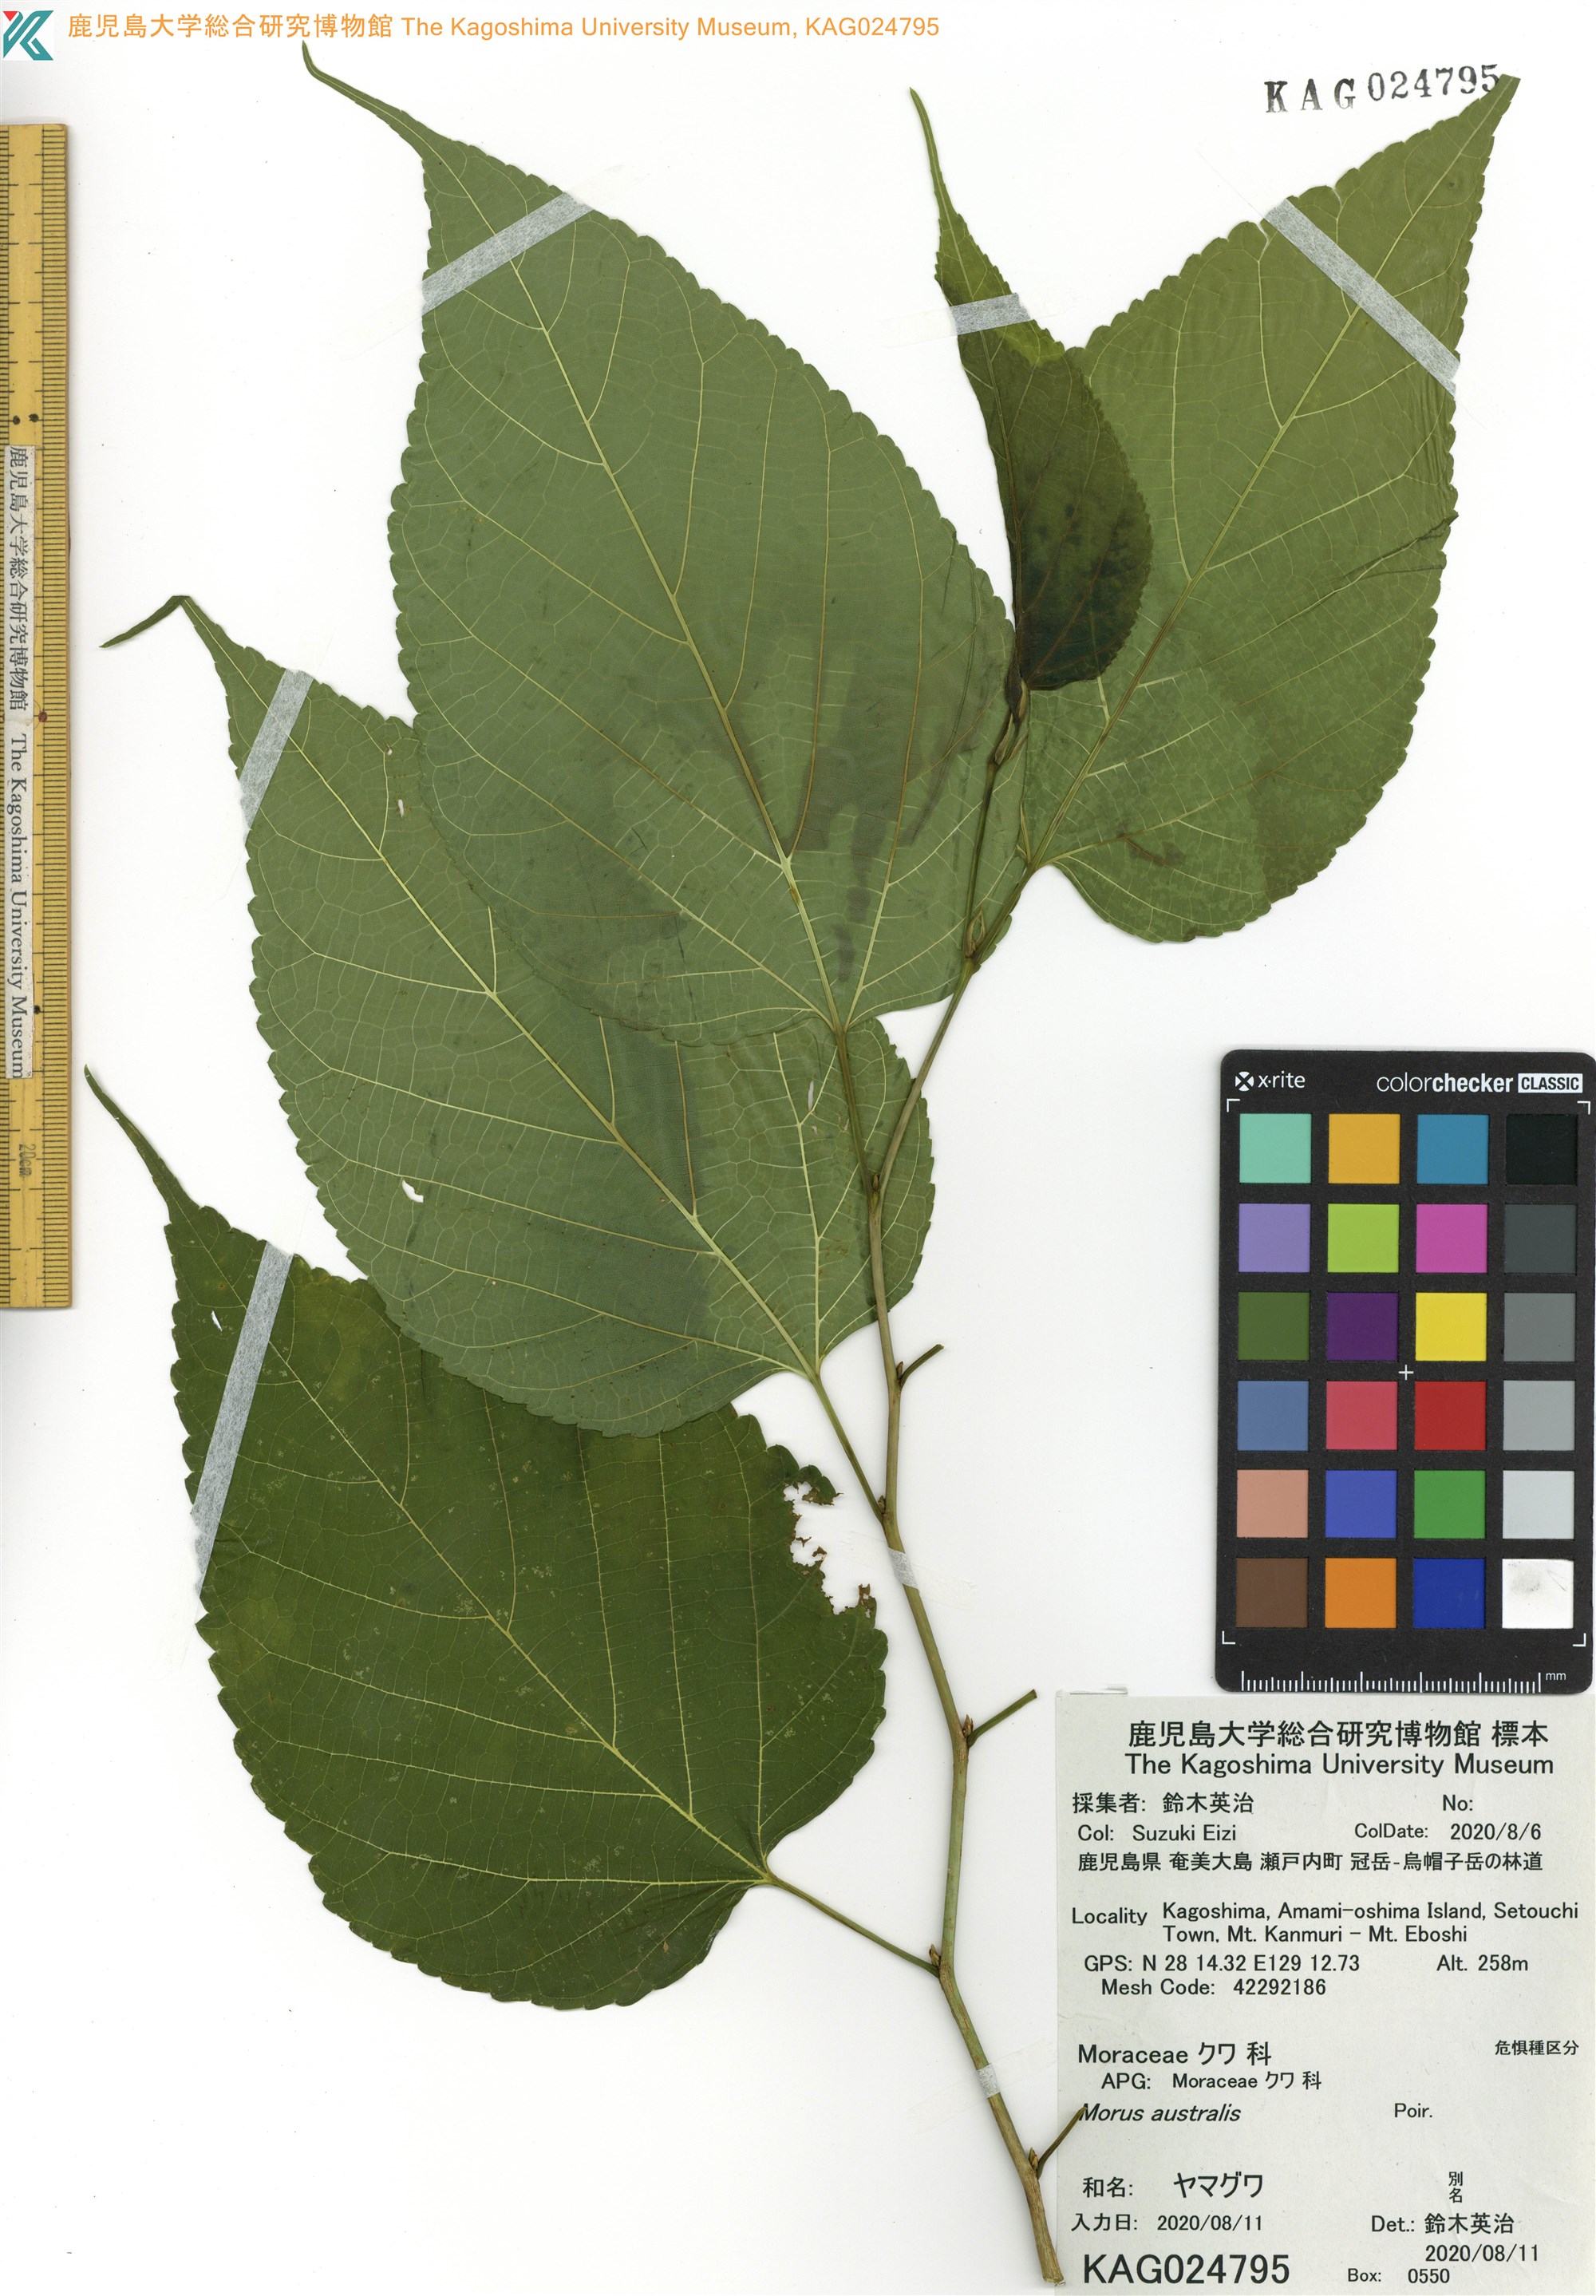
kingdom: Plantae
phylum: Tracheophyta
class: Magnoliopsida
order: Rosales
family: Moraceae
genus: Broussonetia
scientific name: Broussonetia papyrifera
